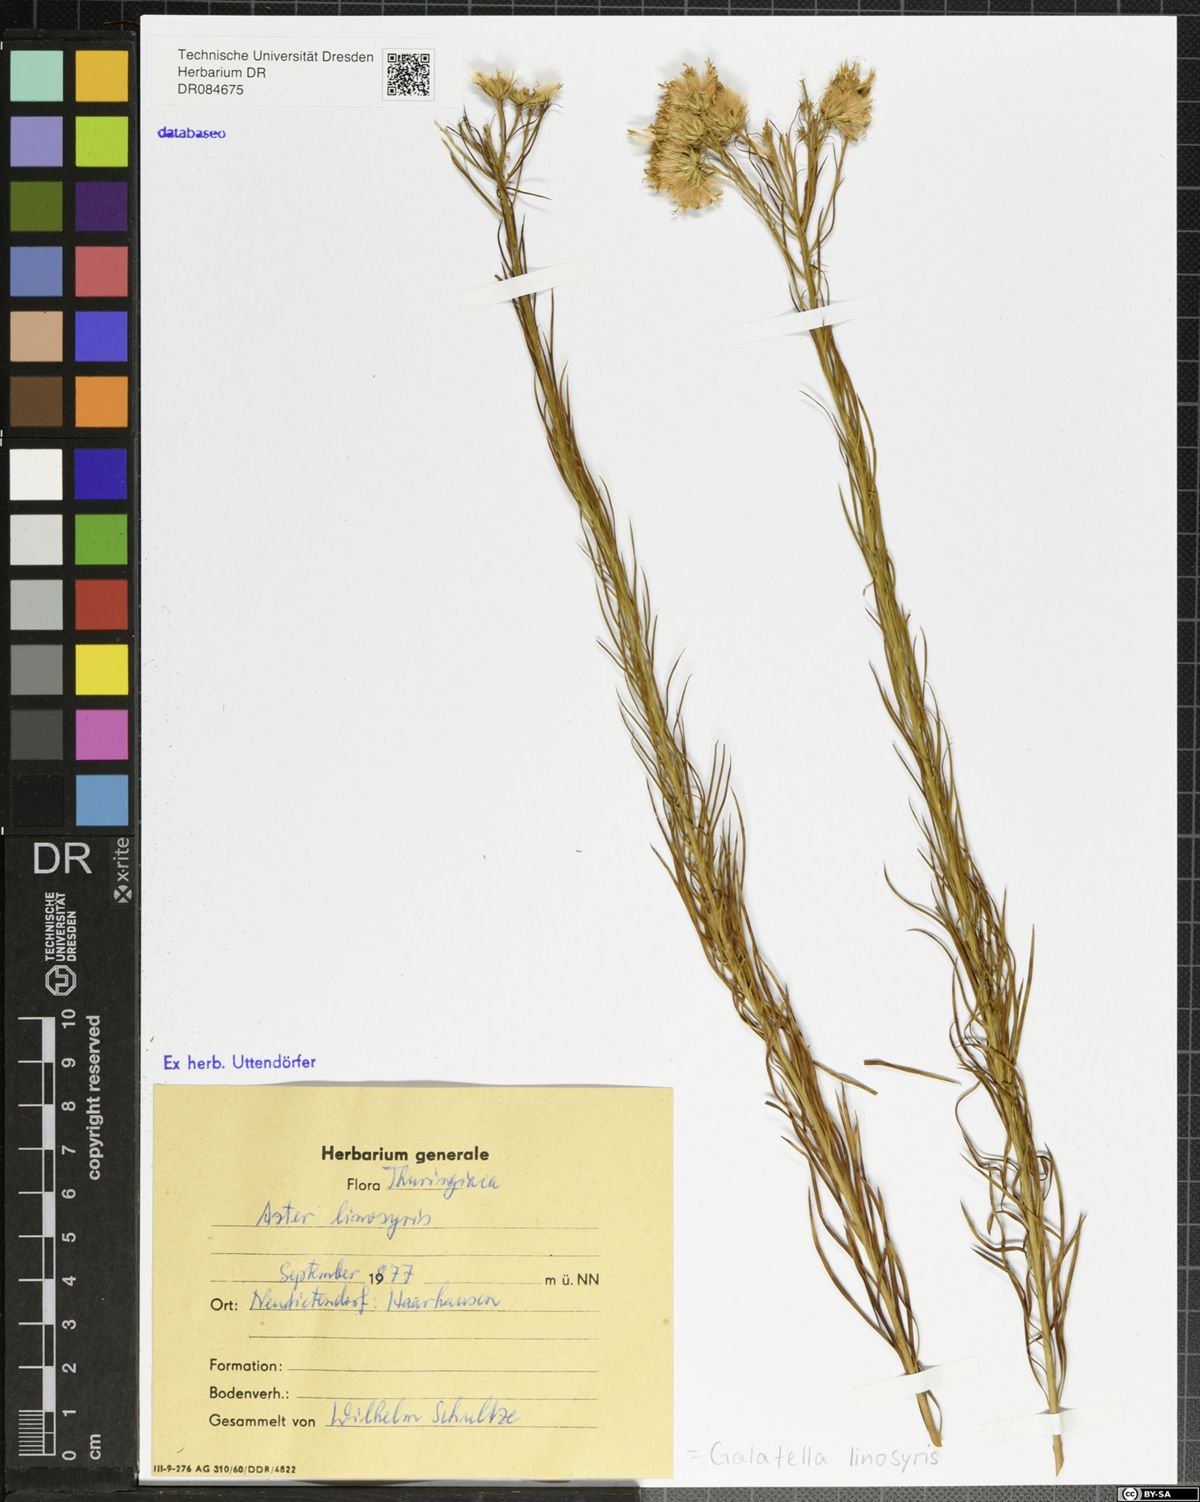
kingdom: Plantae
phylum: Tracheophyta
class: Magnoliopsida
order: Asterales
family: Asteraceae
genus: Galatella
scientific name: Galatella linosyris
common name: Goldilocks aster
